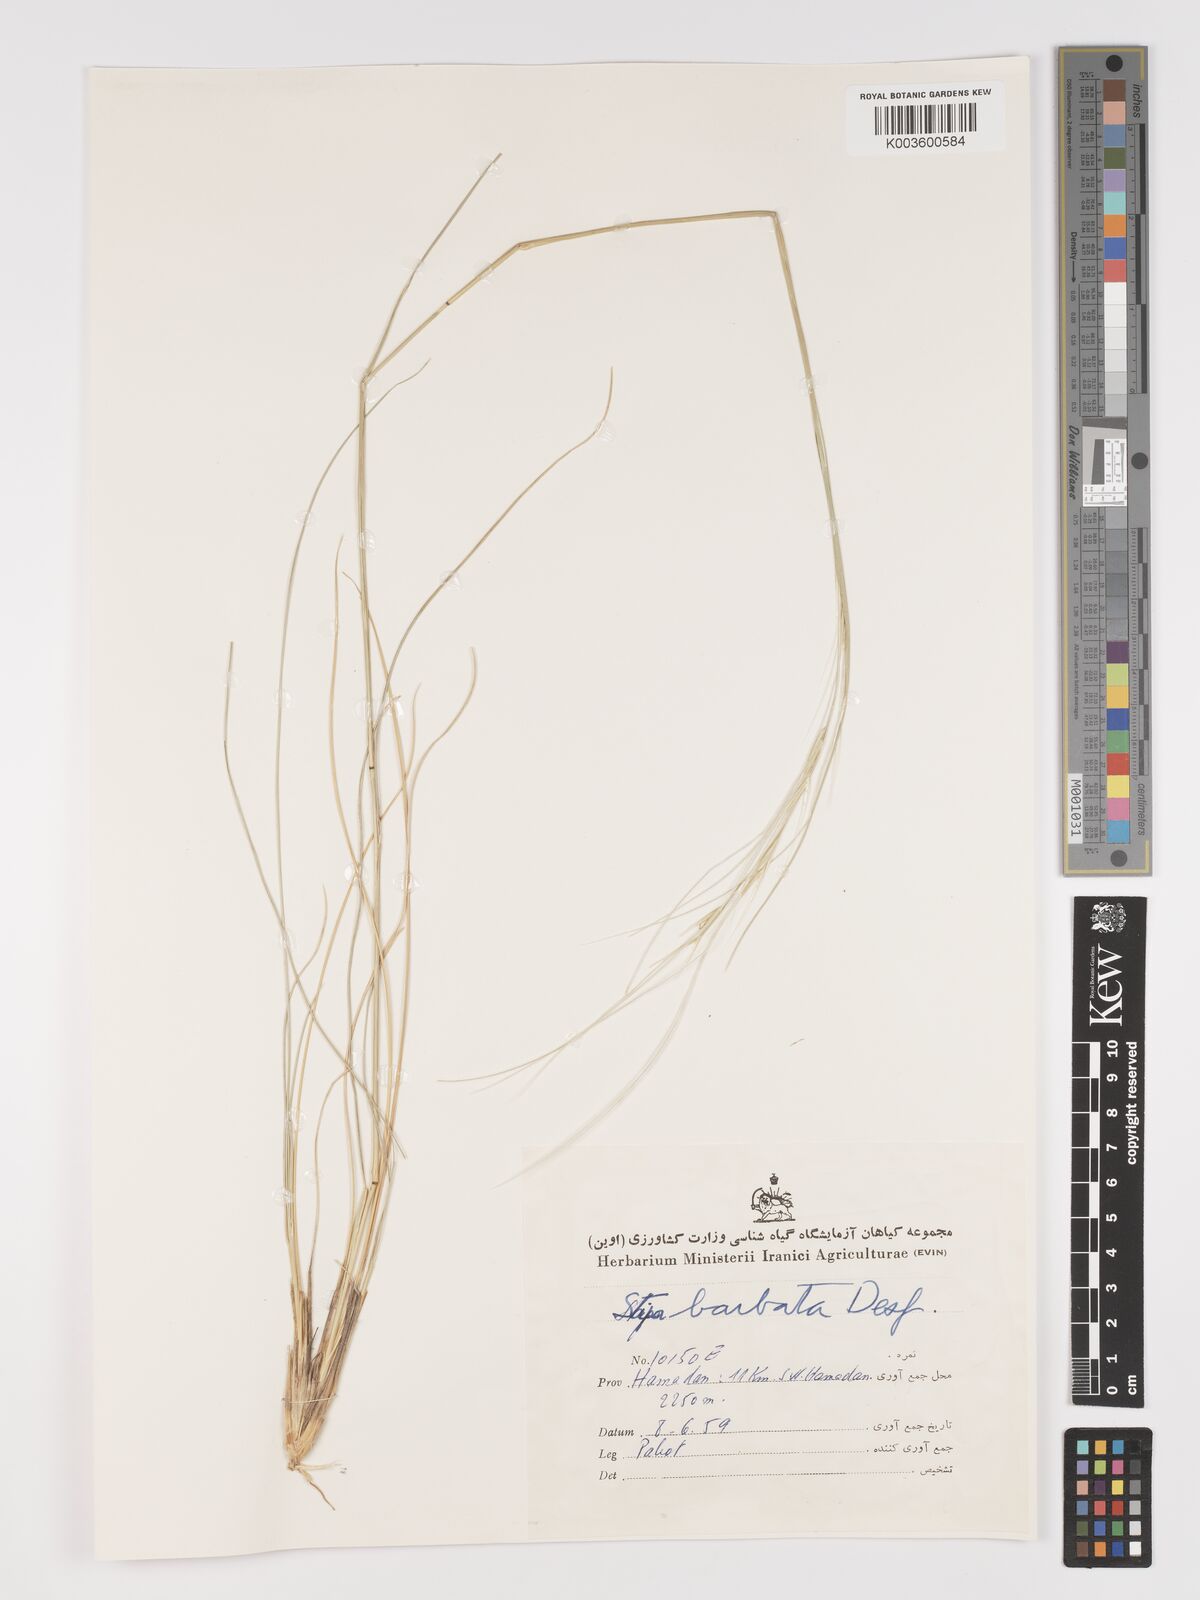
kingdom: Plantae
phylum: Tracheophyta
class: Liliopsida
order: Poales
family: Poaceae
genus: Stipa
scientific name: Stipa barbata
